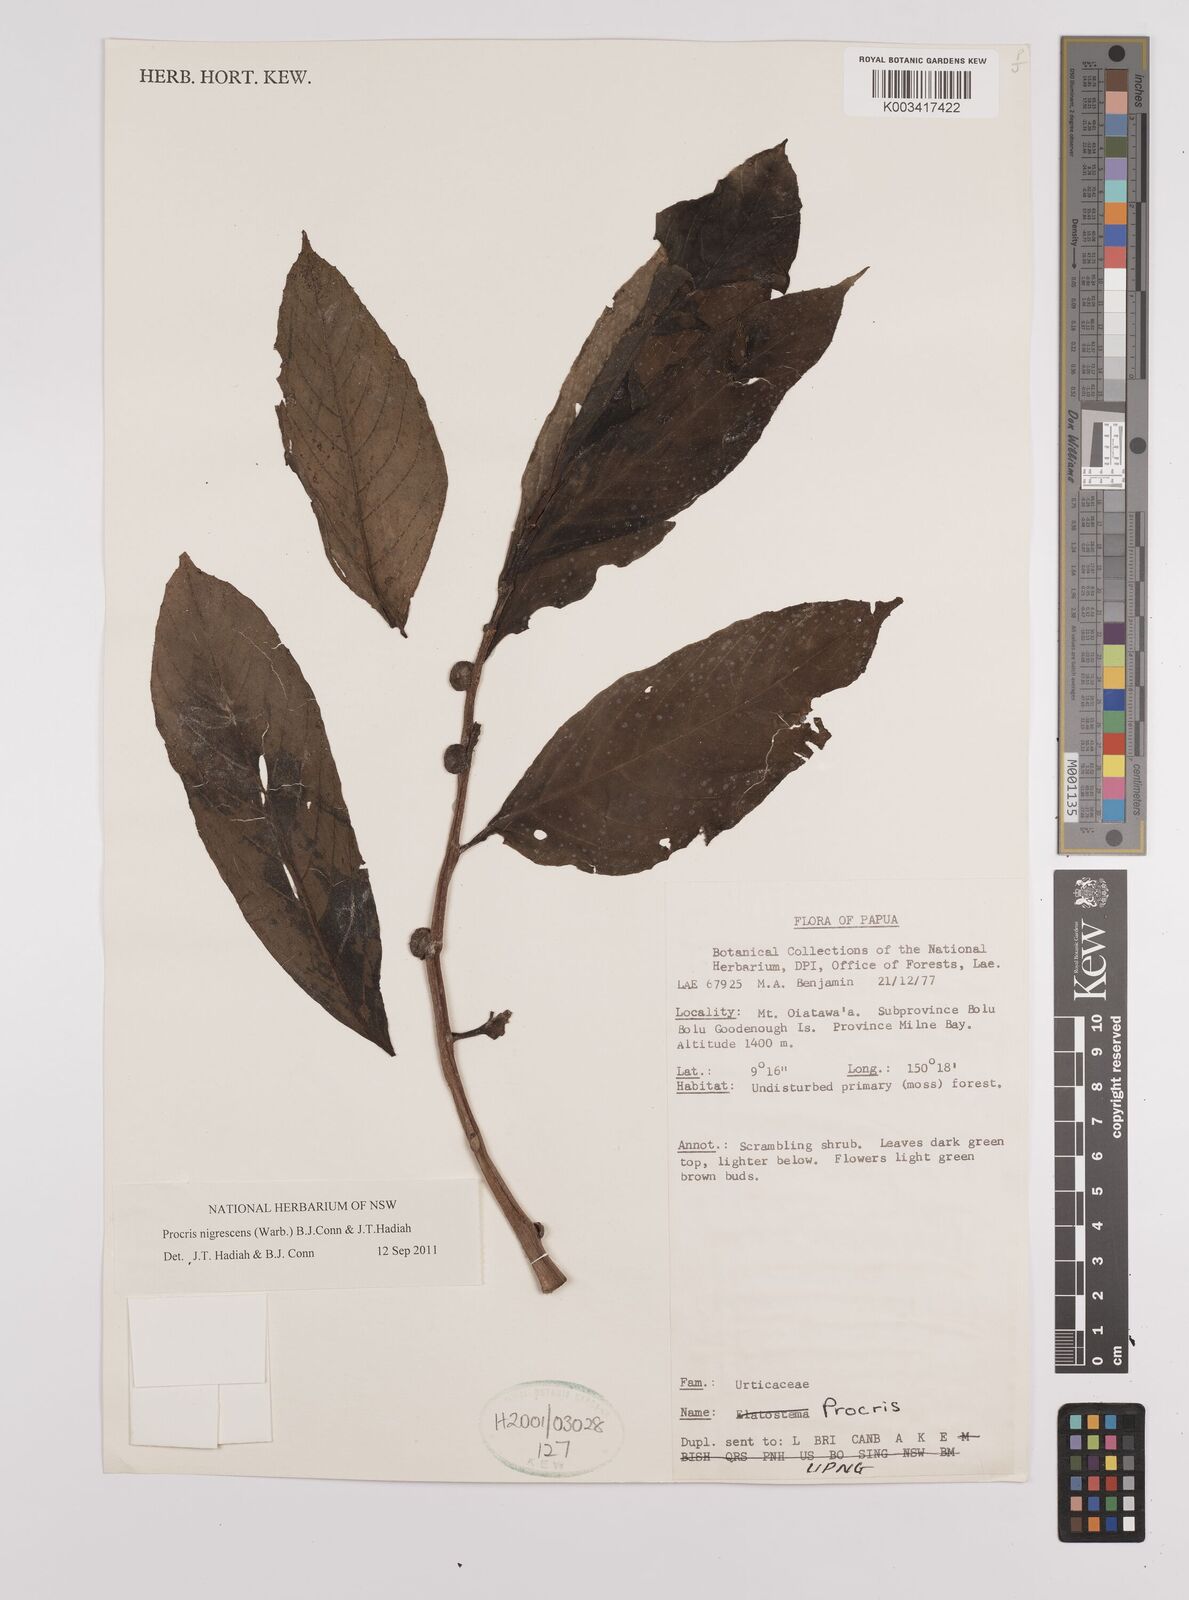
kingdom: Plantae
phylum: Tracheophyta
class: Magnoliopsida
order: Rosales
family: Urticaceae
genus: Procris
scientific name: Procris
